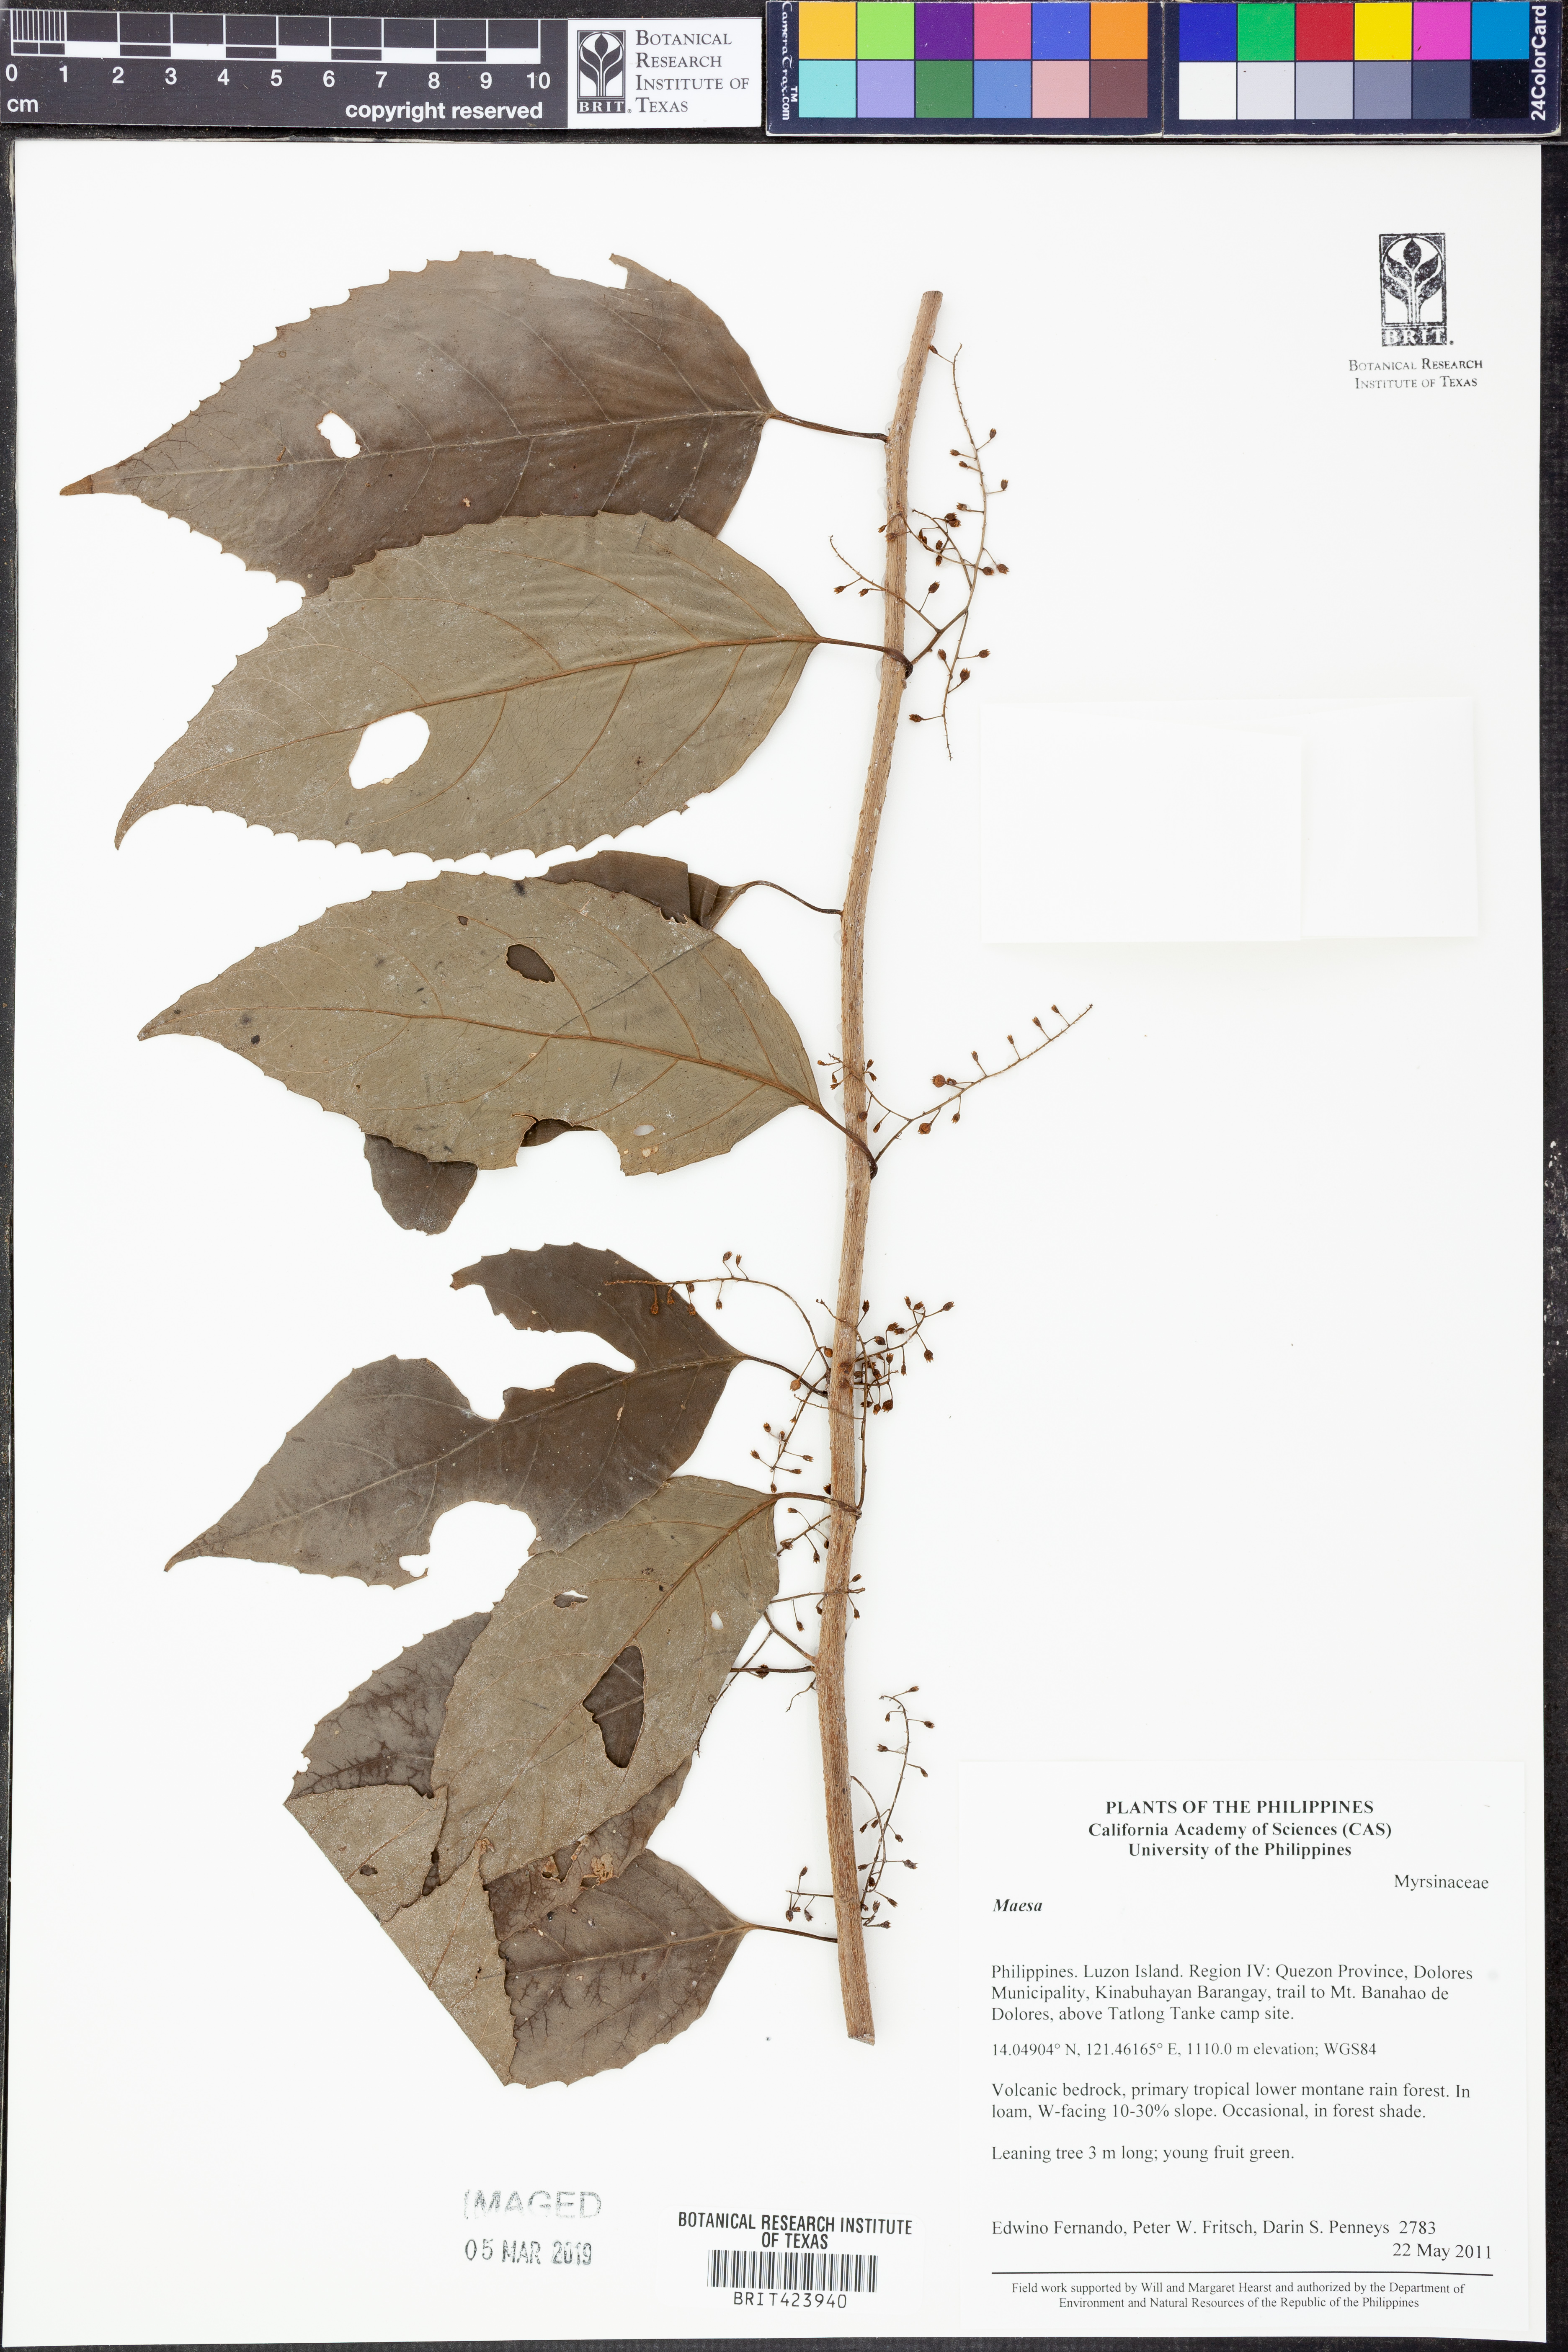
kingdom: Plantae
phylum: Tracheophyta
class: Magnoliopsida
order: Ericales
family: Primulaceae
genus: Maesa
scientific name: Maesa
